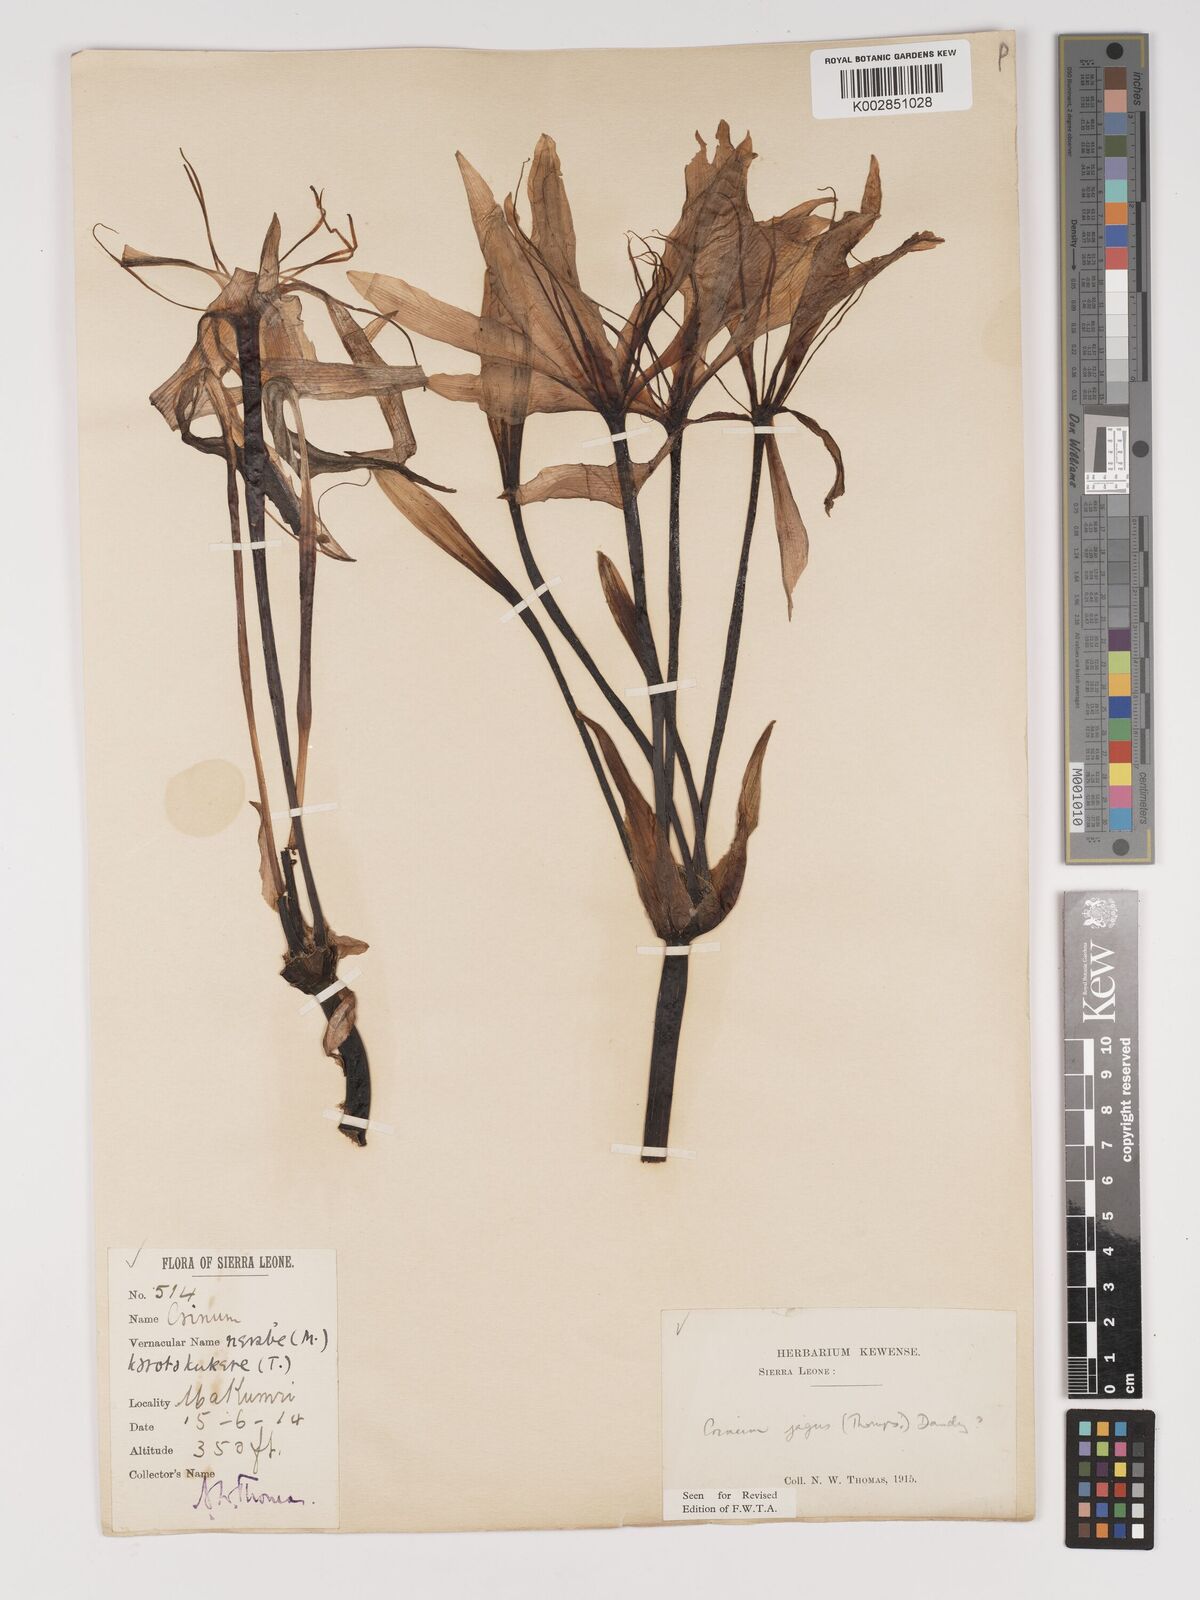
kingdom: Plantae
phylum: Tracheophyta
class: Liliopsida
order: Asparagales
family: Amaryllidaceae
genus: Crinum
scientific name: Crinum jagus
